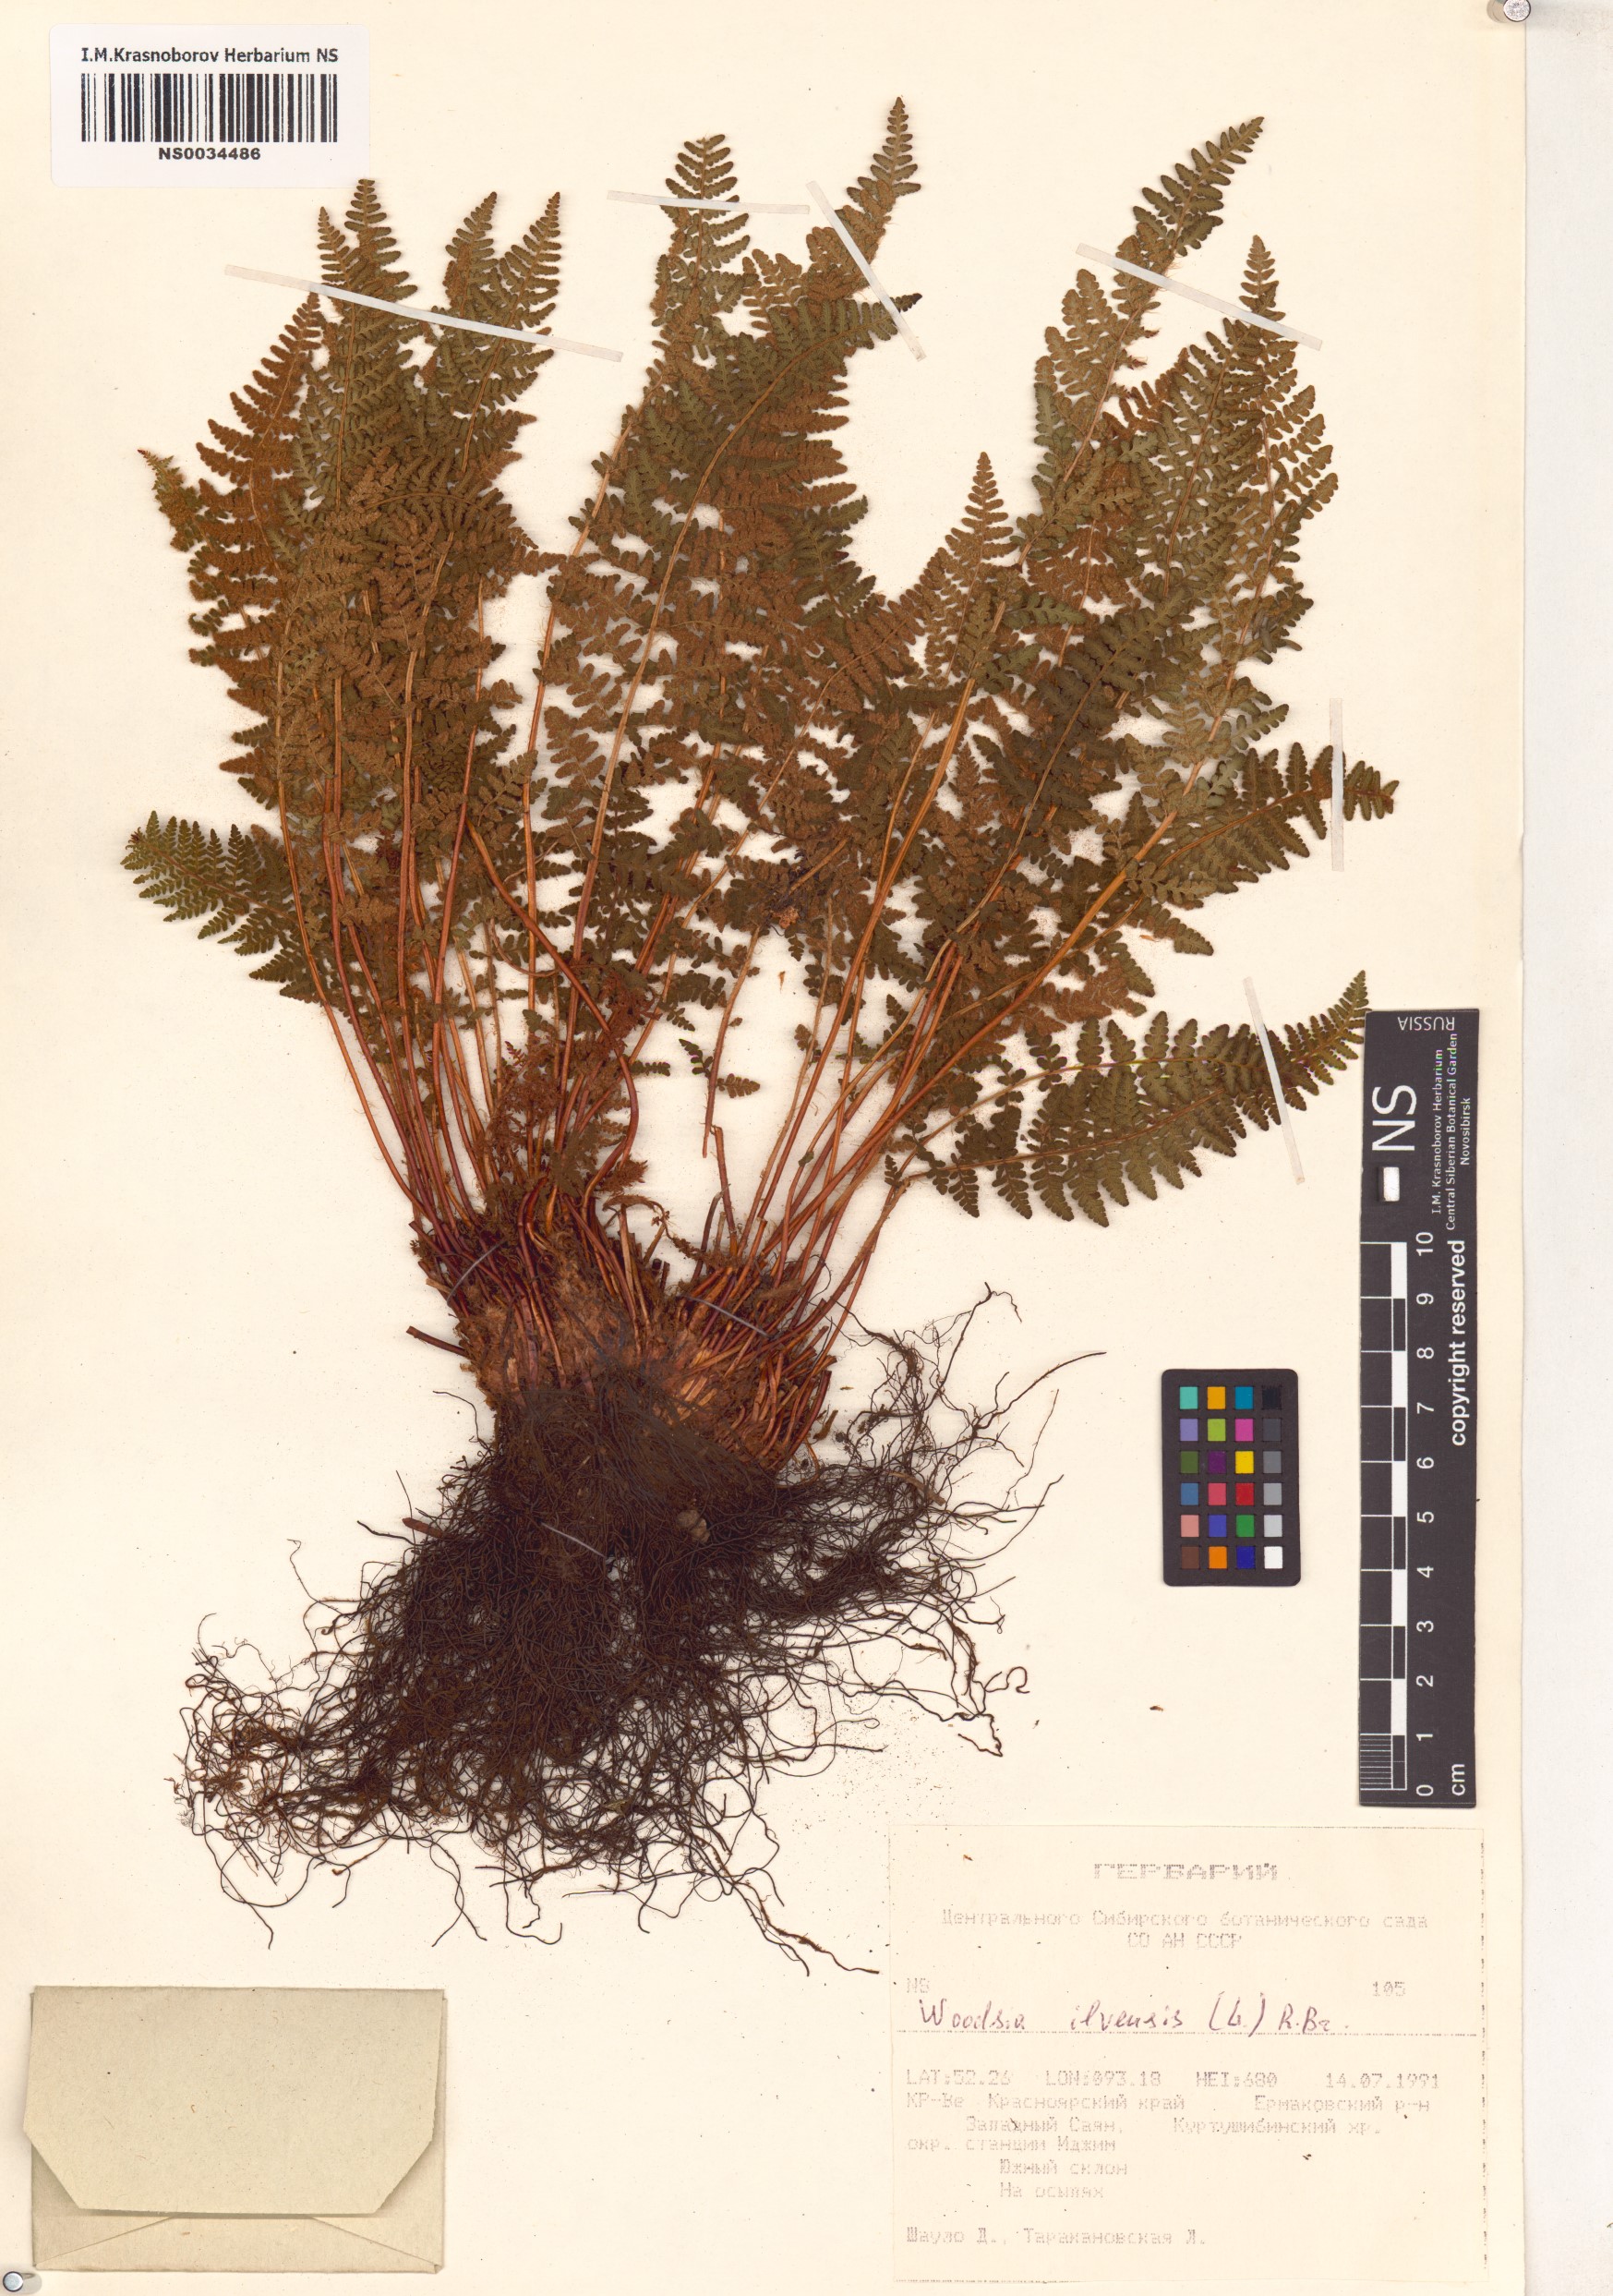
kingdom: Plantae
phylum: Tracheophyta
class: Polypodiopsida
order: Polypodiales
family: Woodsiaceae
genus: Woodsia
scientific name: Woodsia ilvensis
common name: Fragrant woodsia
